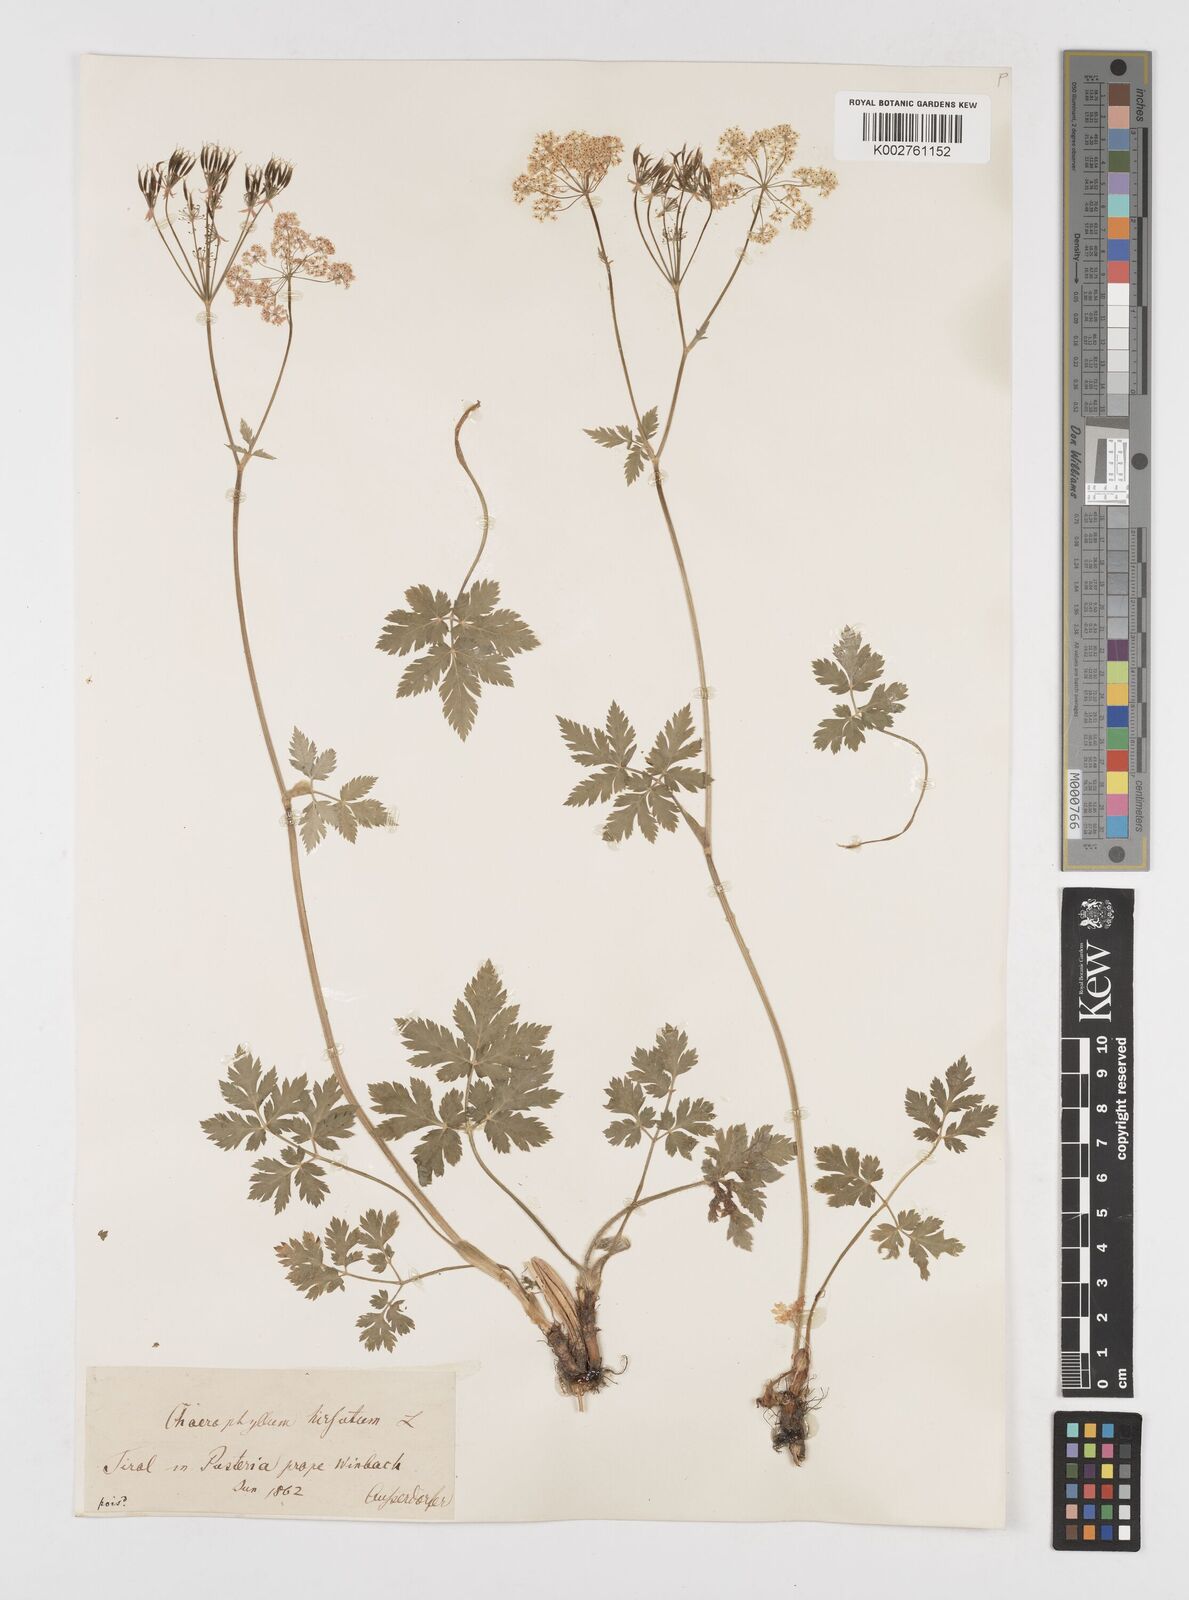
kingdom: Plantae
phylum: Tracheophyta
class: Magnoliopsida
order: Apiales
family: Apiaceae
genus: Chaerophyllum
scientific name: Chaerophyllum hirsutum
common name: Hairy chervil
